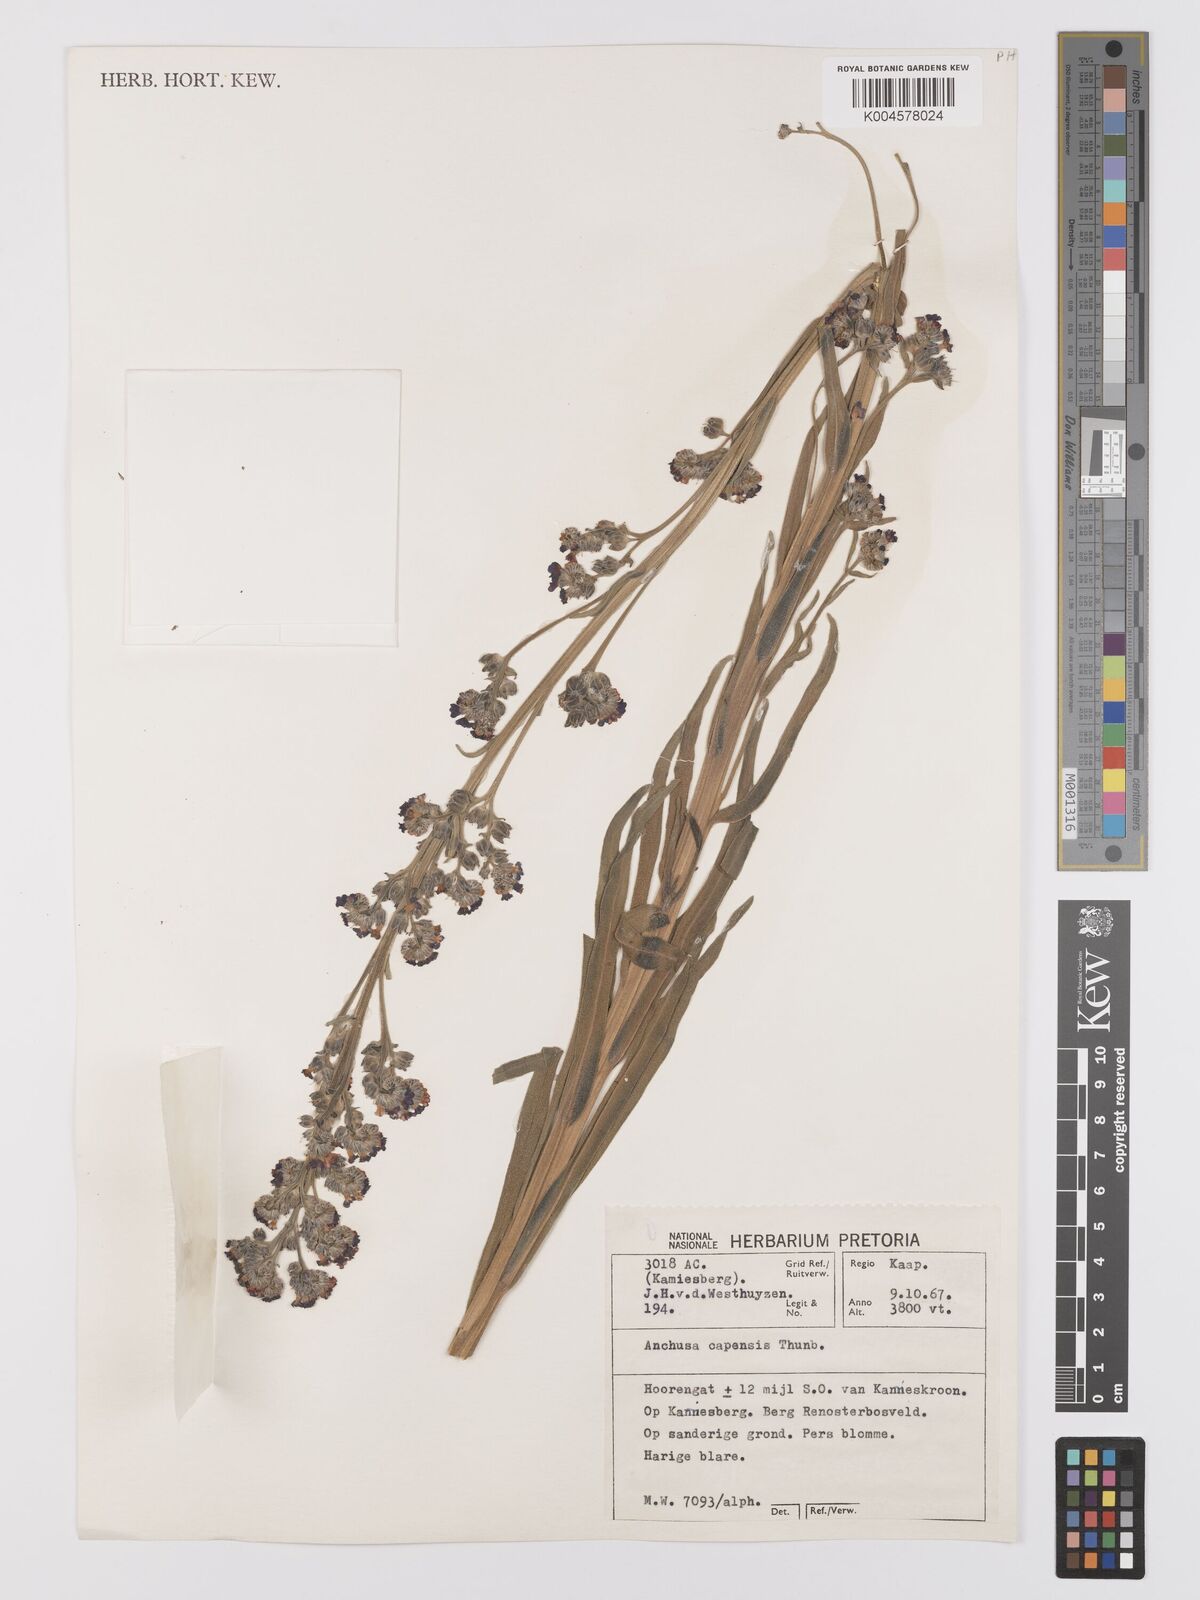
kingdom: Plantae
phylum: Tracheophyta
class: Magnoliopsida
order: Boraginales
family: Boraginaceae
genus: Anchusa
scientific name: Anchusa capensis
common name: Cape bugloss
